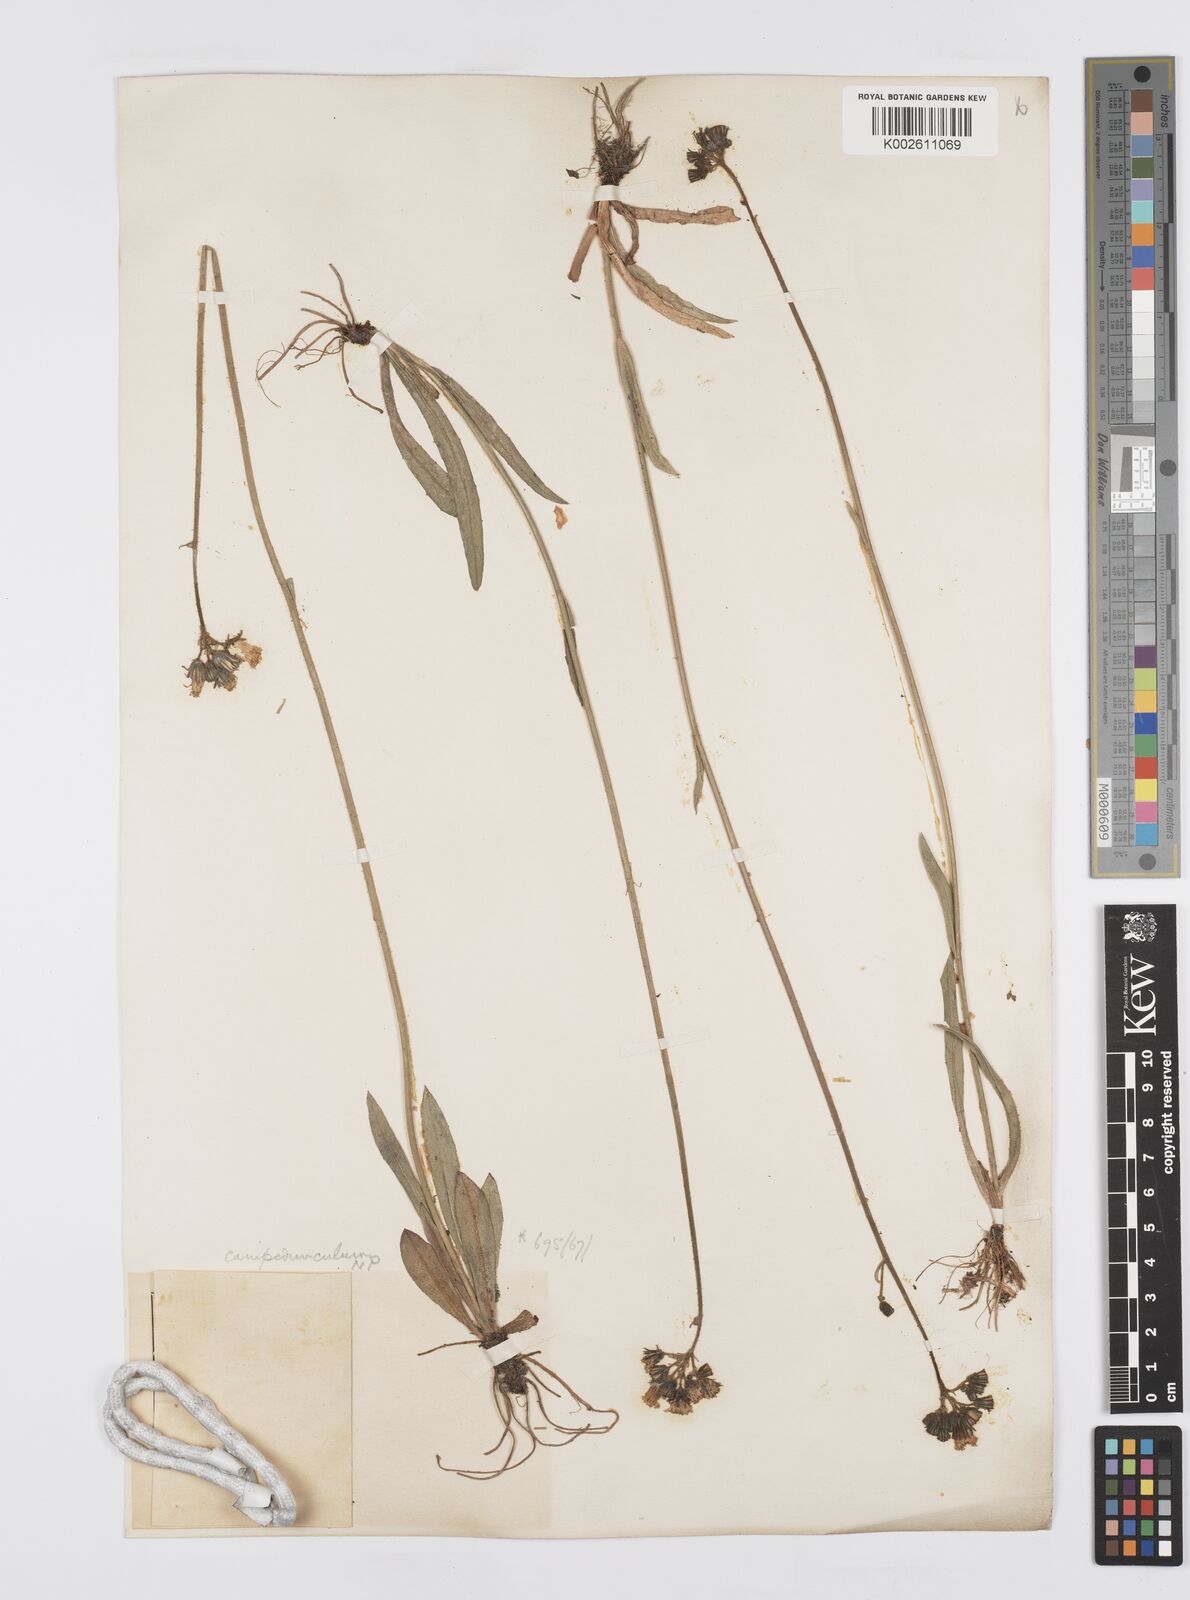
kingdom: Plantae
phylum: Tracheophyta
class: Magnoliopsida
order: Asterales
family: Asteraceae
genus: Pilosella
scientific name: Pilosella piloselloides
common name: Glaucous king-devil
